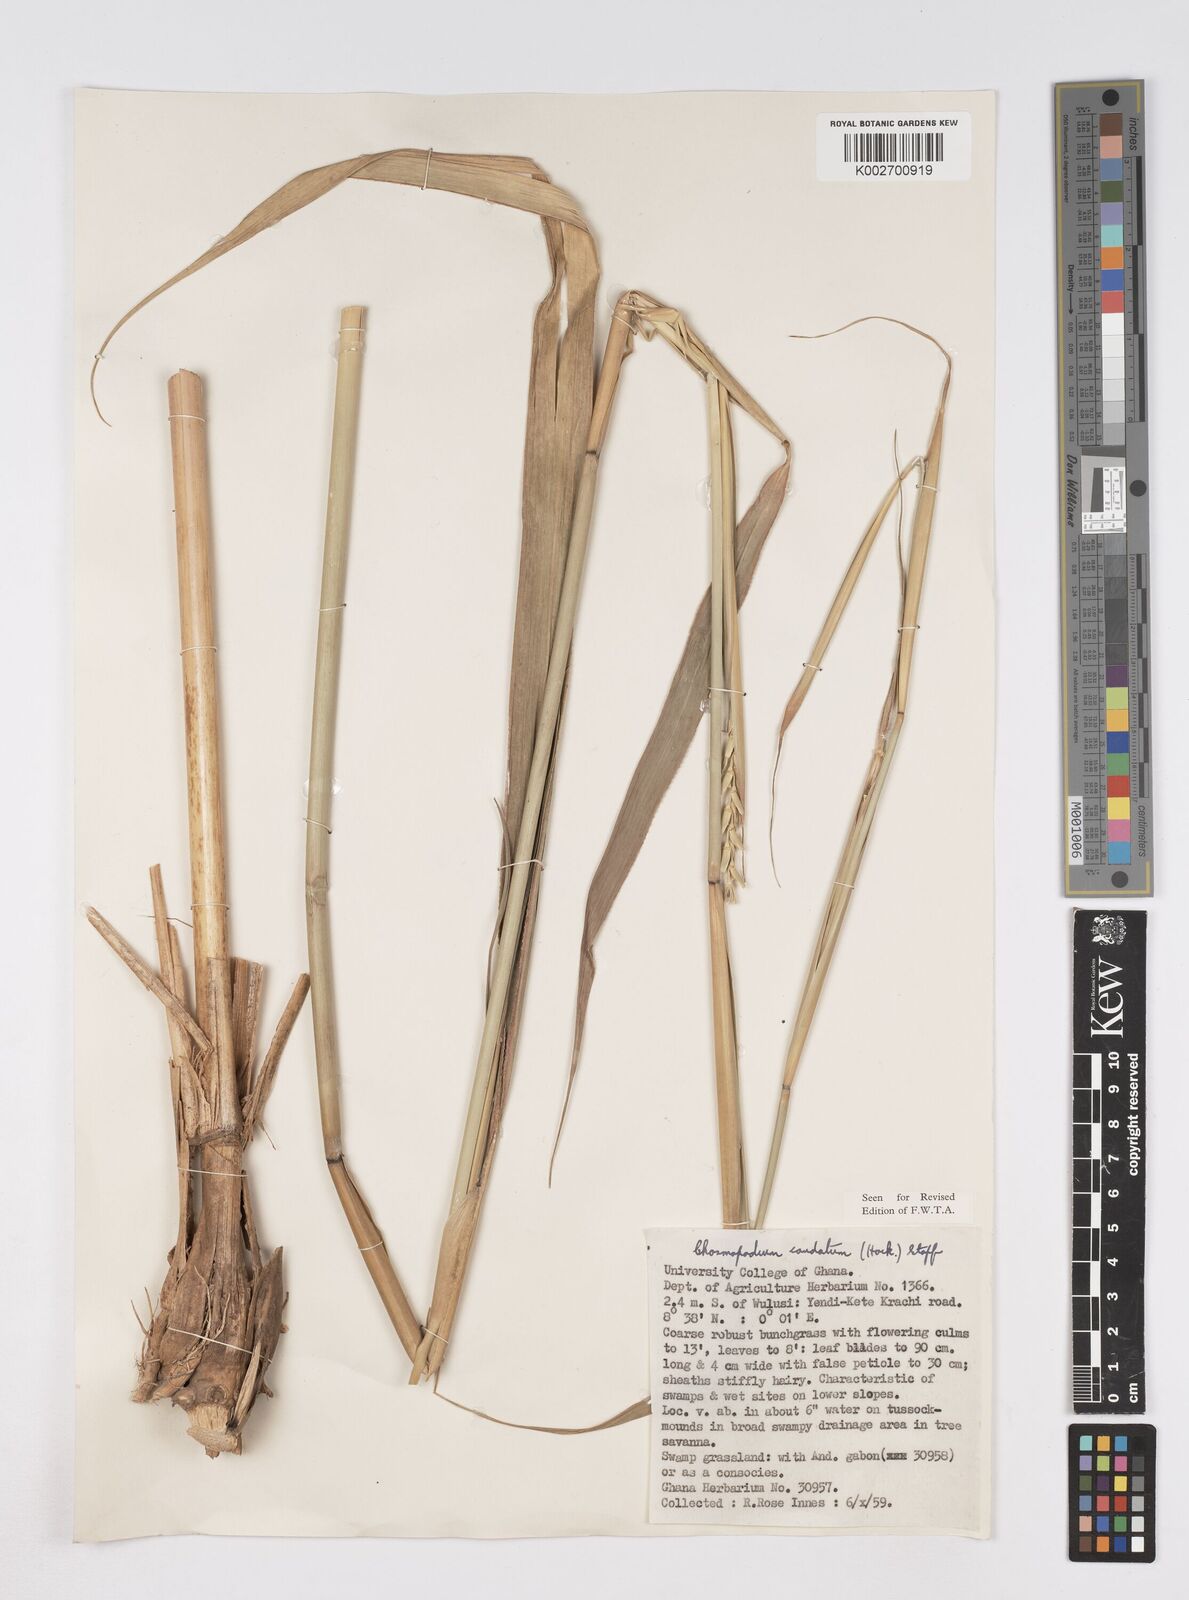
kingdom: Plantae
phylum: Tracheophyta
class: Liliopsida
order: Poales
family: Poaceae
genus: Chasmopodium
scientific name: Chasmopodium caudatum
